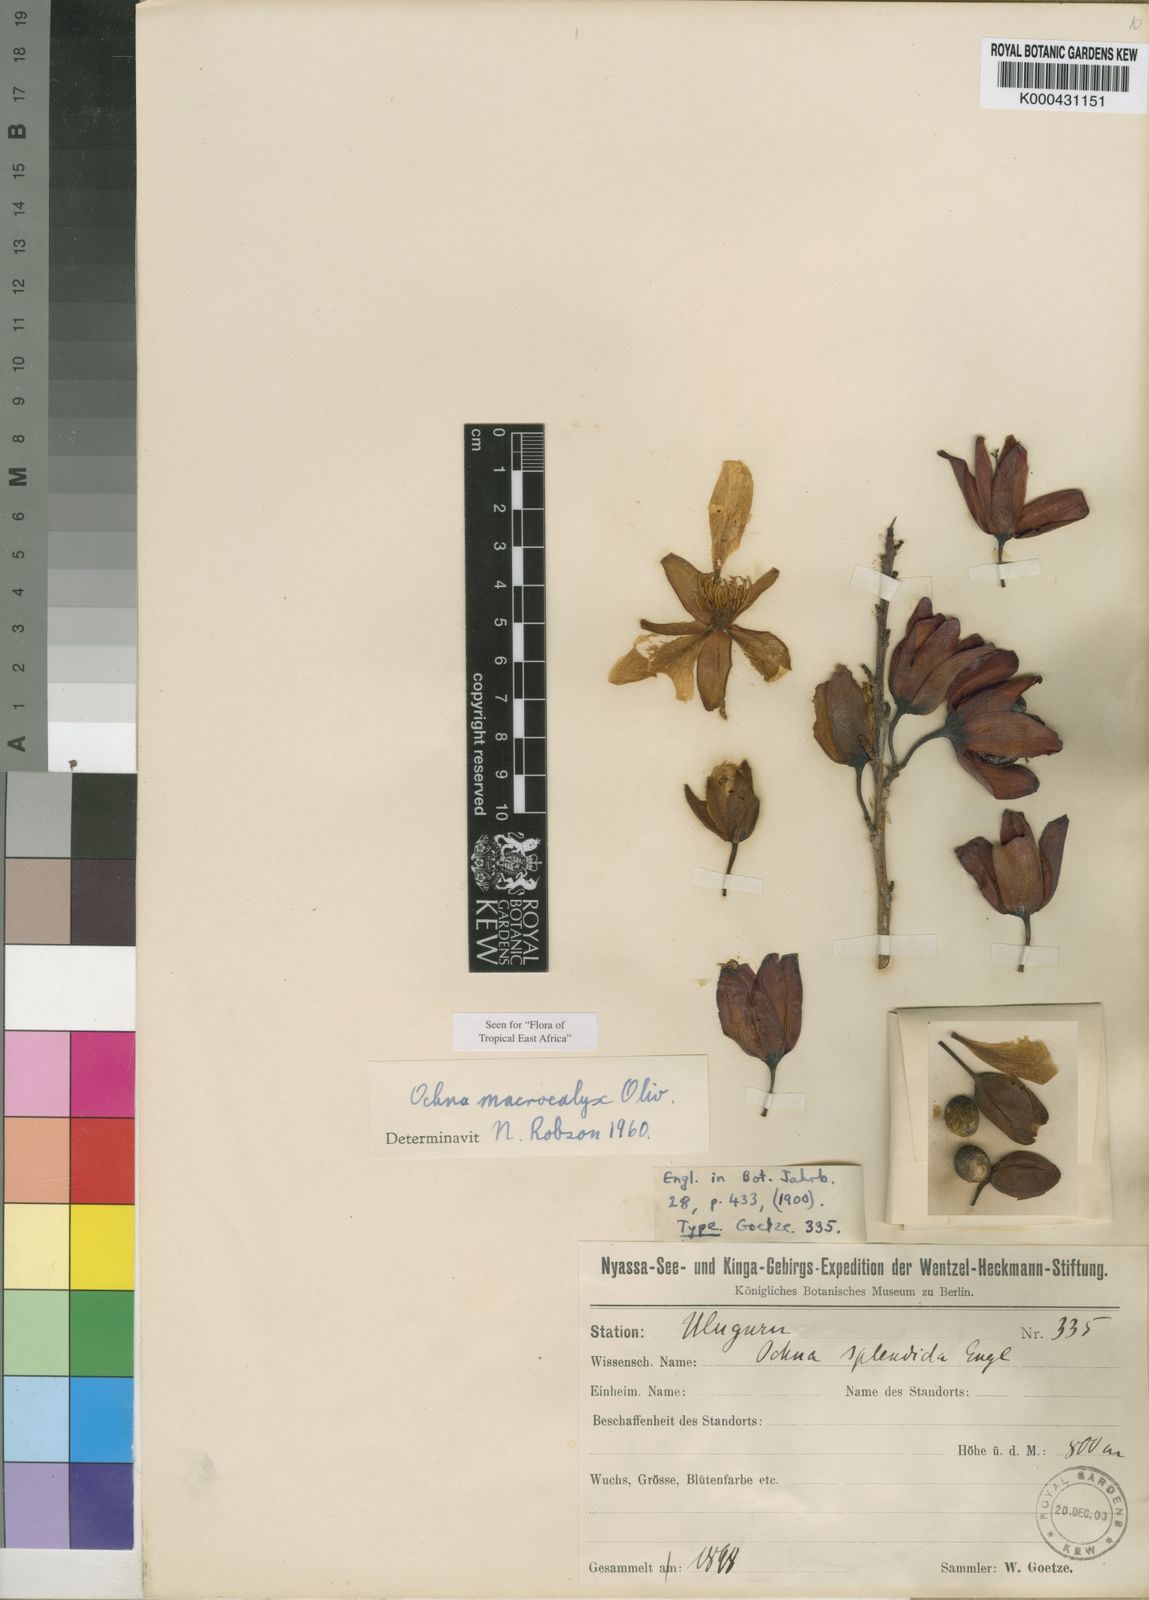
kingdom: Plantae
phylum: Tracheophyta
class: Magnoliopsida
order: Malpighiales
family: Ochnaceae
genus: Ochna
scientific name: Ochna macrocalyx
